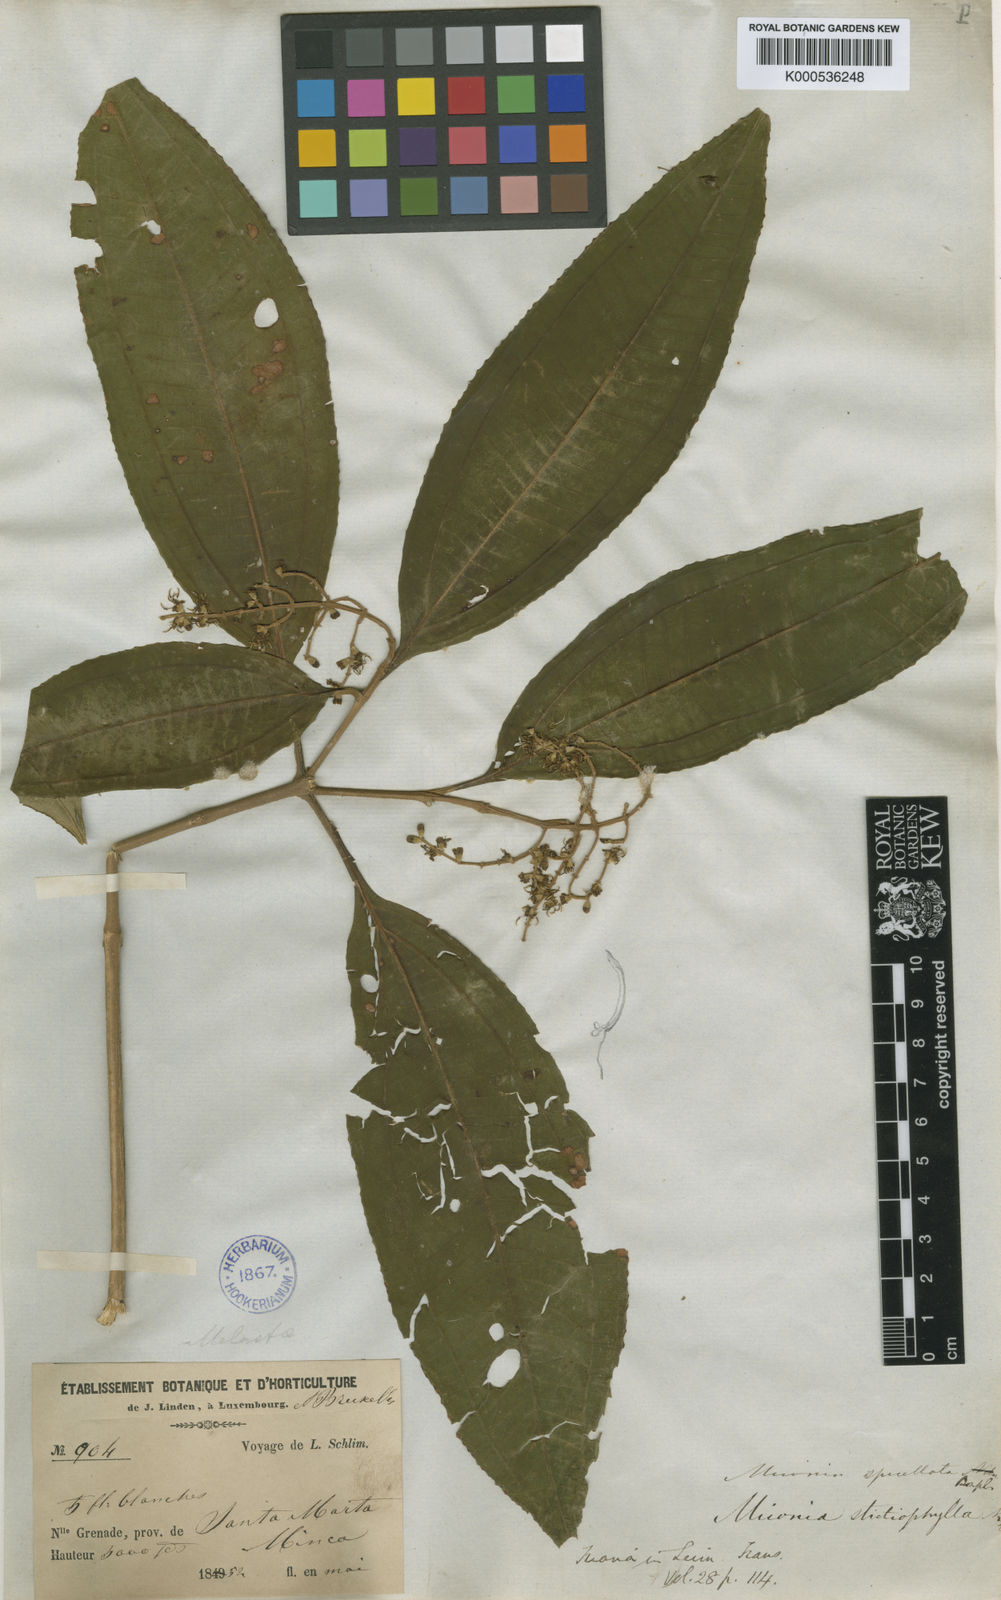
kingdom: Plantae
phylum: Tracheophyta
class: Magnoliopsida
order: Myrtales
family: Melastomataceae
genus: Miconia
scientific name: Miconia spicellata
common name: Bonpland maya
